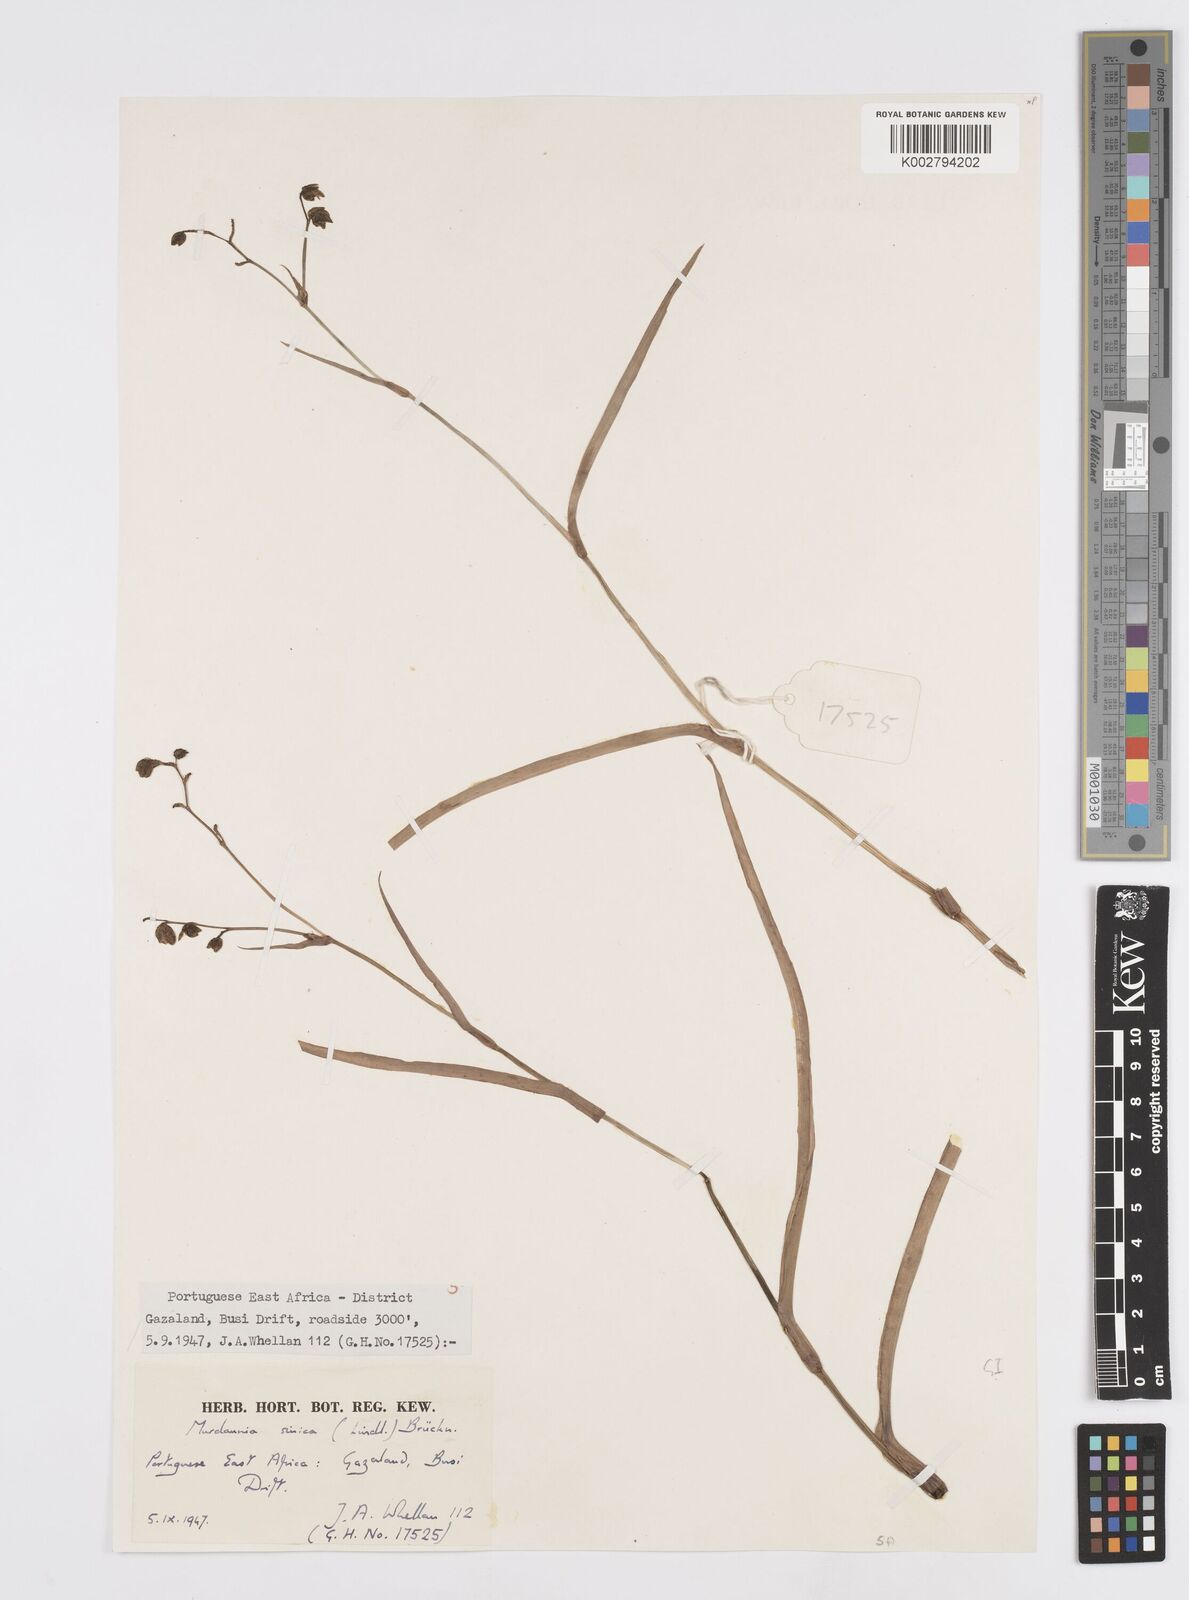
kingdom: Plantae
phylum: Tracheophyta
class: Liliopsida
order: Commelinales
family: Commelinaceae
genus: Murdannia
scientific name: Murdannia simplex
